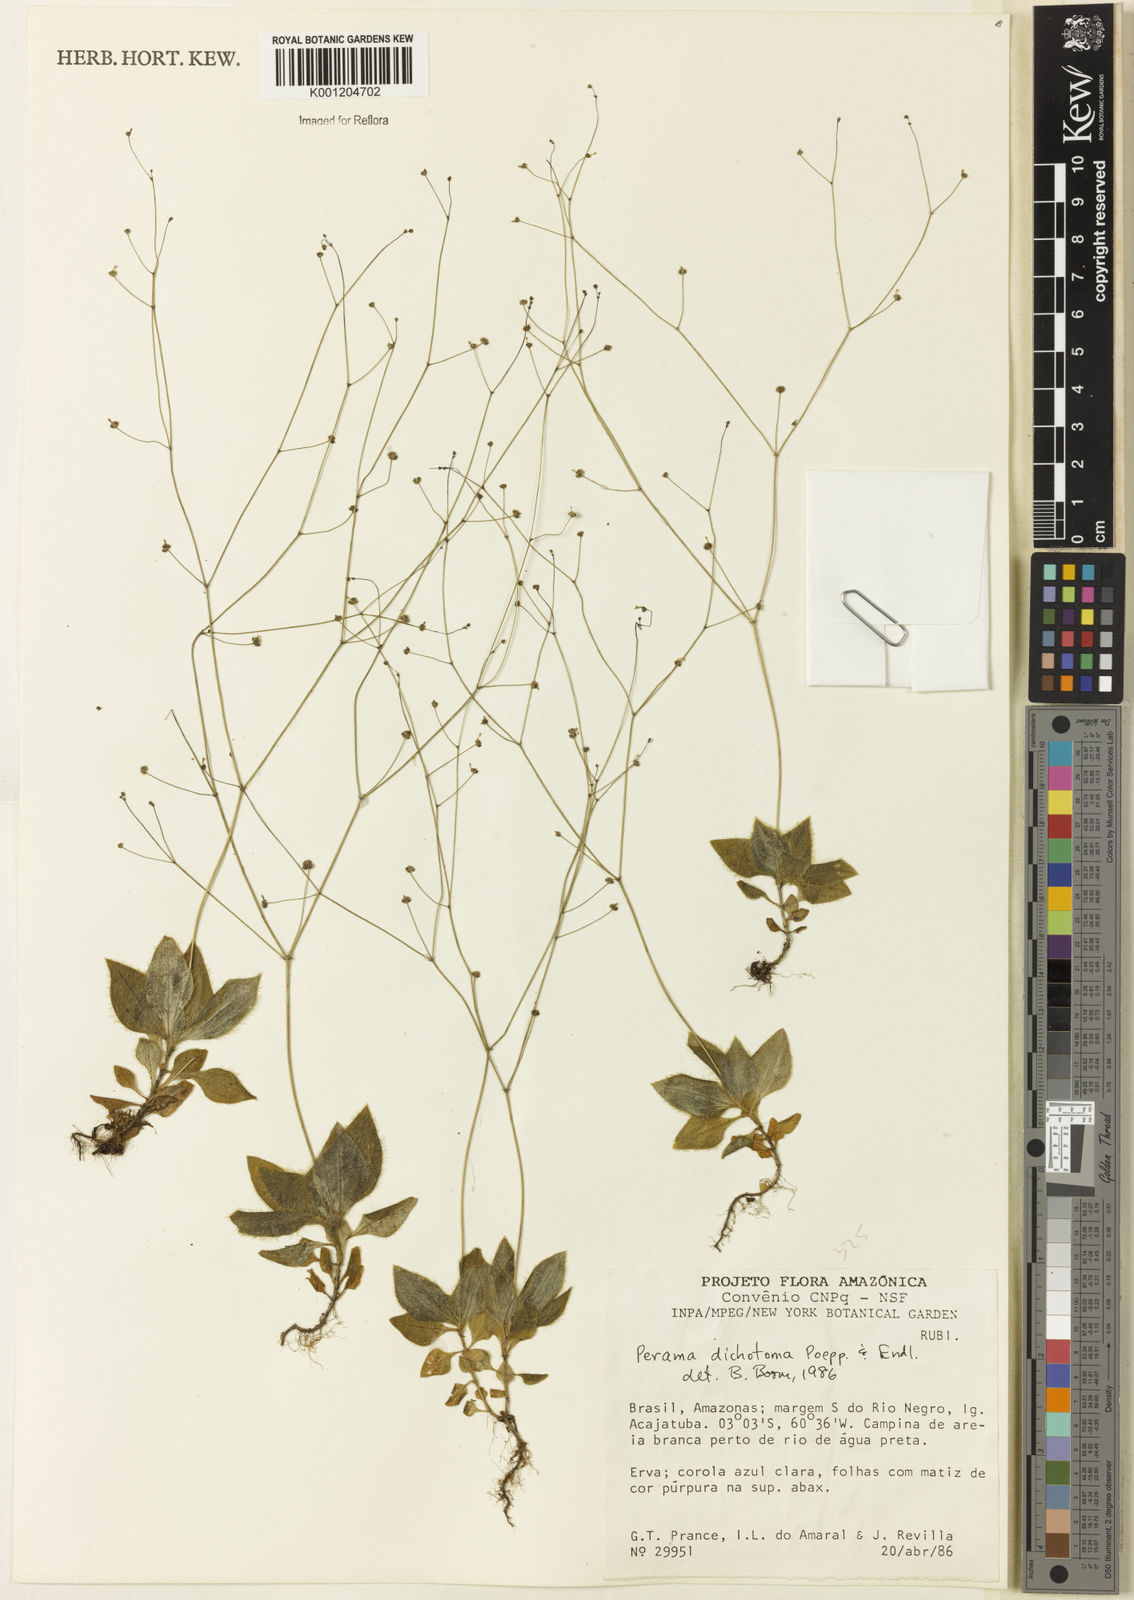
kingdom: Plantae
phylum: Tracheophyta
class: Magnoliopsida
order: Gentianales
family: Rubiaceae
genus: Perama
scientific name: Perama dichotoma
